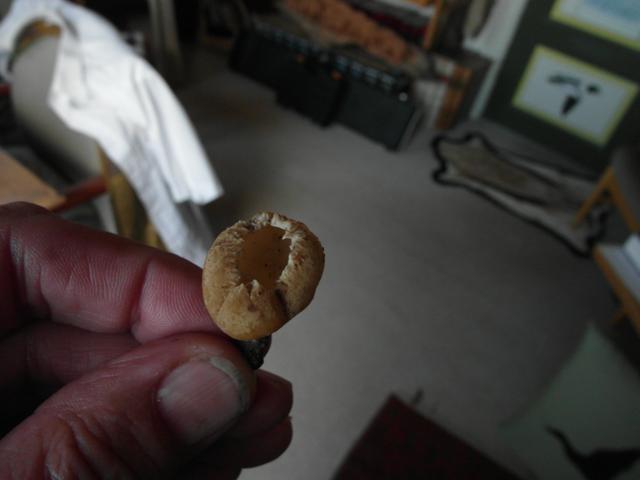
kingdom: Fungi
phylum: Ascomycota
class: Pezizomycetes
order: Pezizales
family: Pyronemataceae
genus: Tarzetta
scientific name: Tarzetta cupularis
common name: gulbrun pokalbæger
